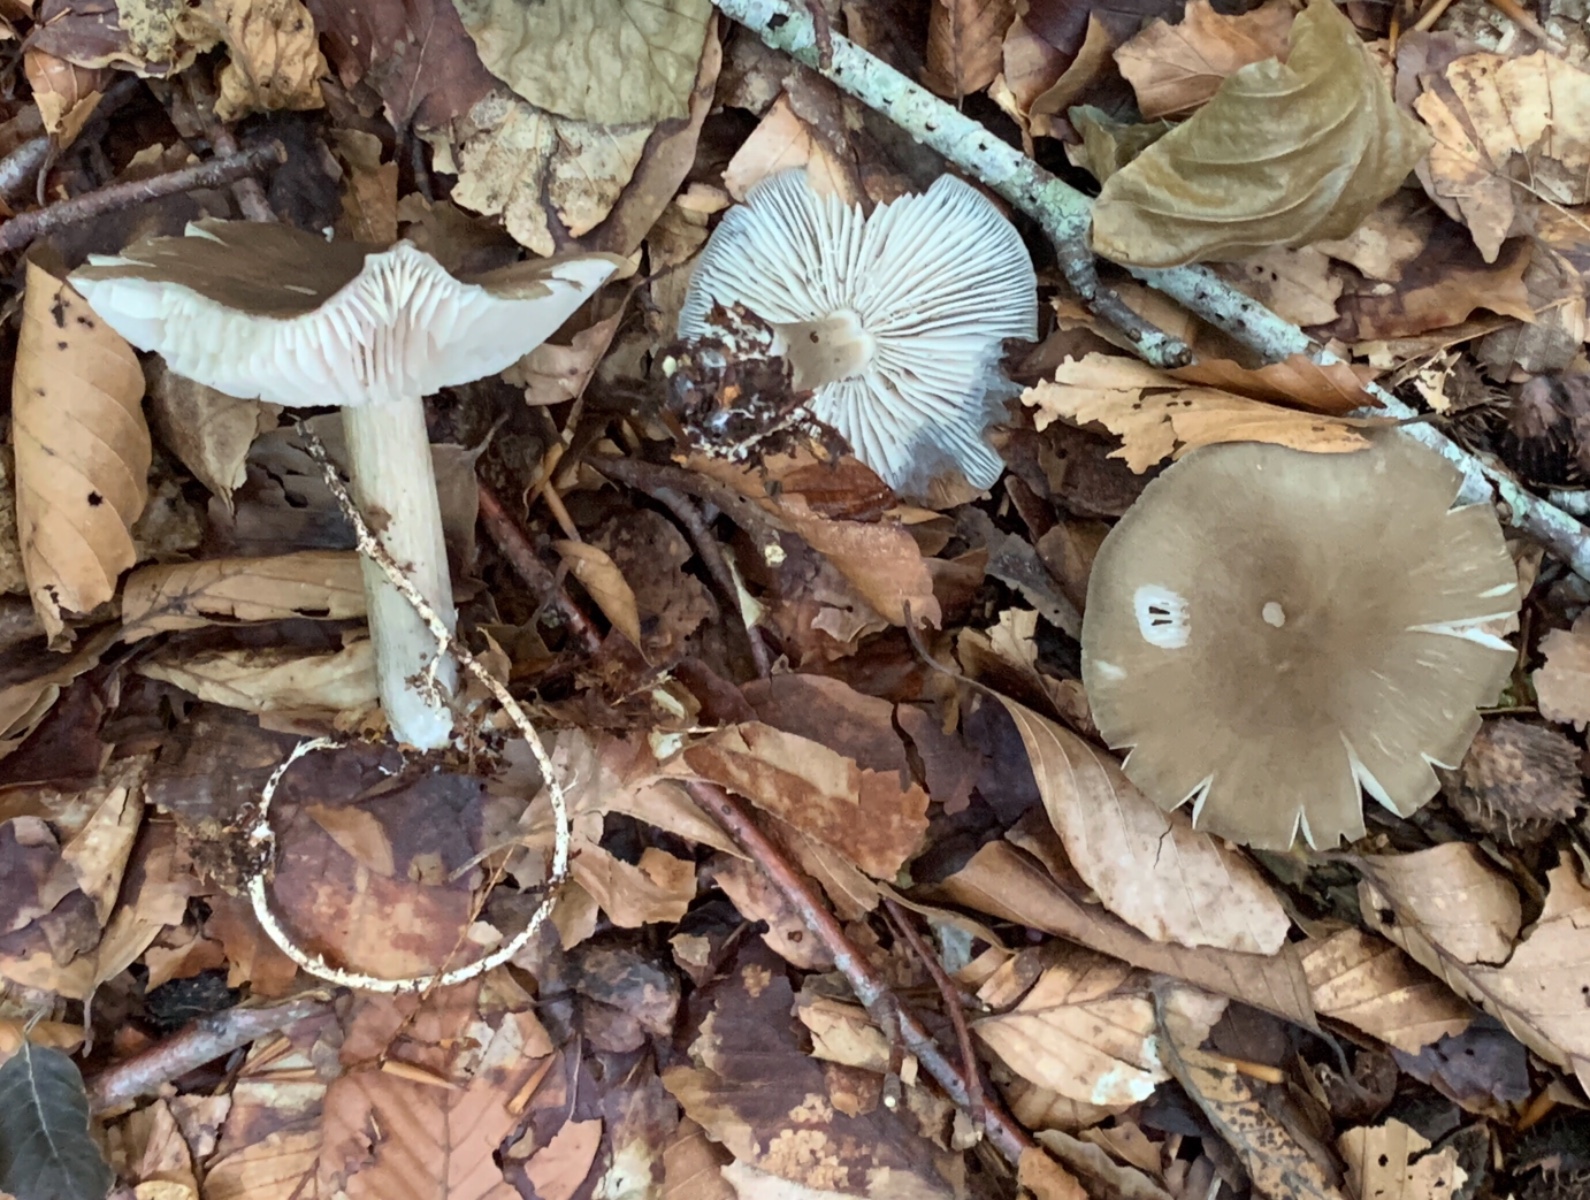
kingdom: Fungi
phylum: Basidiomycota
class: Agaricomycetes
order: Agaricales
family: Tricholomataceae
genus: Megacollybia
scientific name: Megacollybia platyphylla
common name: bredbladet væbnerhat
